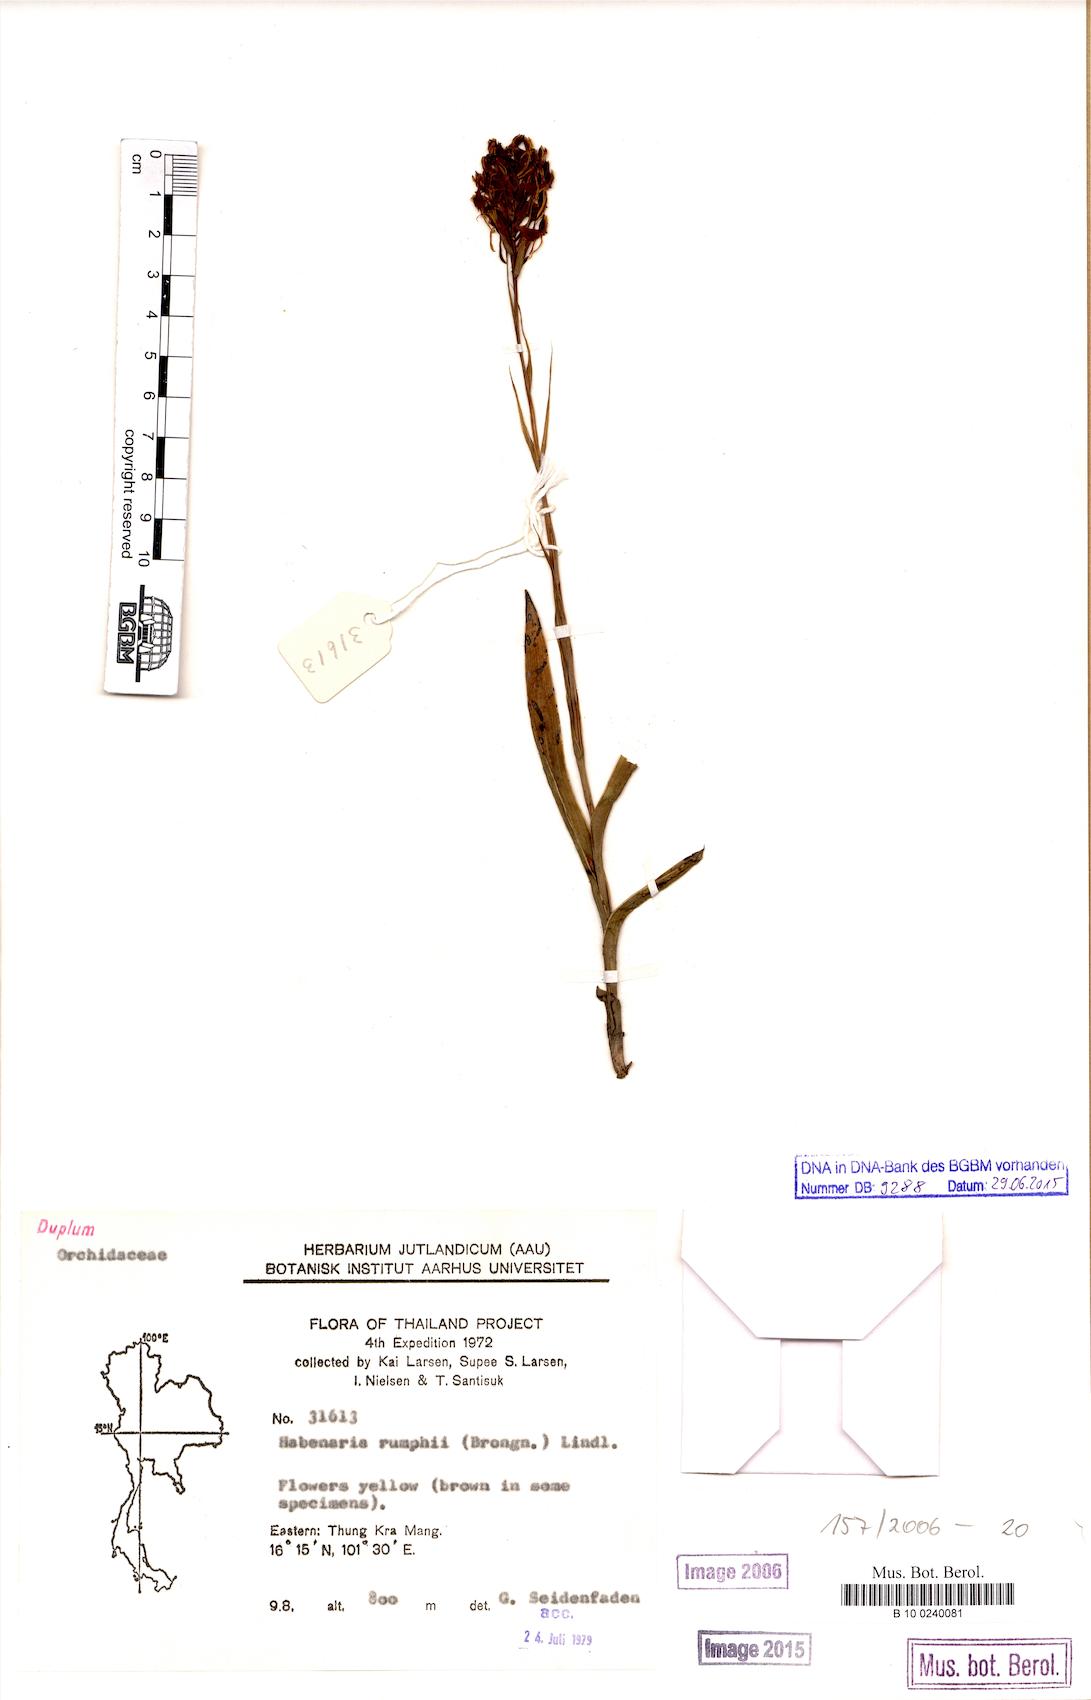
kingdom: Plantae
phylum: Tracheophyta
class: Liliopsida
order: Asparagales
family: Orchidaceae
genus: Habenaria
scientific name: Habenaria rumphii
